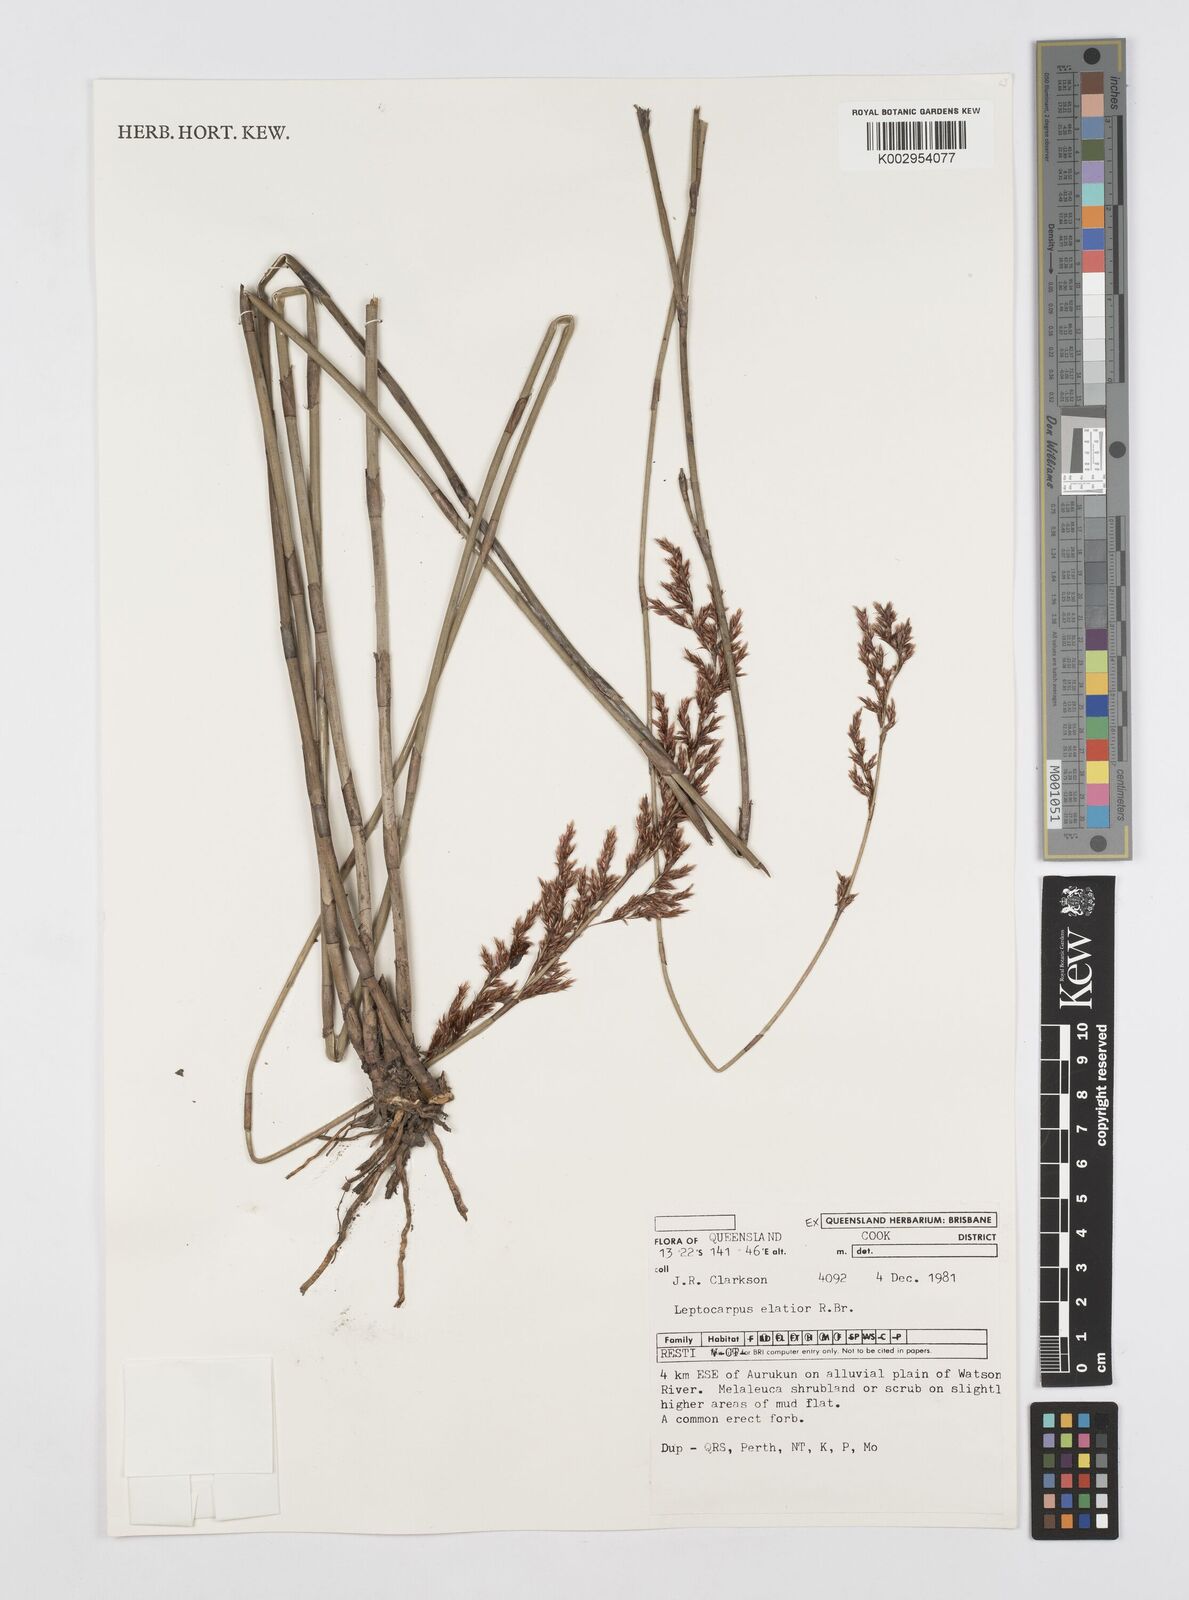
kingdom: Plantae
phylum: Tracheophyta
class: Liliopsida
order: Poales
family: Restionaceae
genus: Dapsilanthus
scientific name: Dapsilanthus elatior
